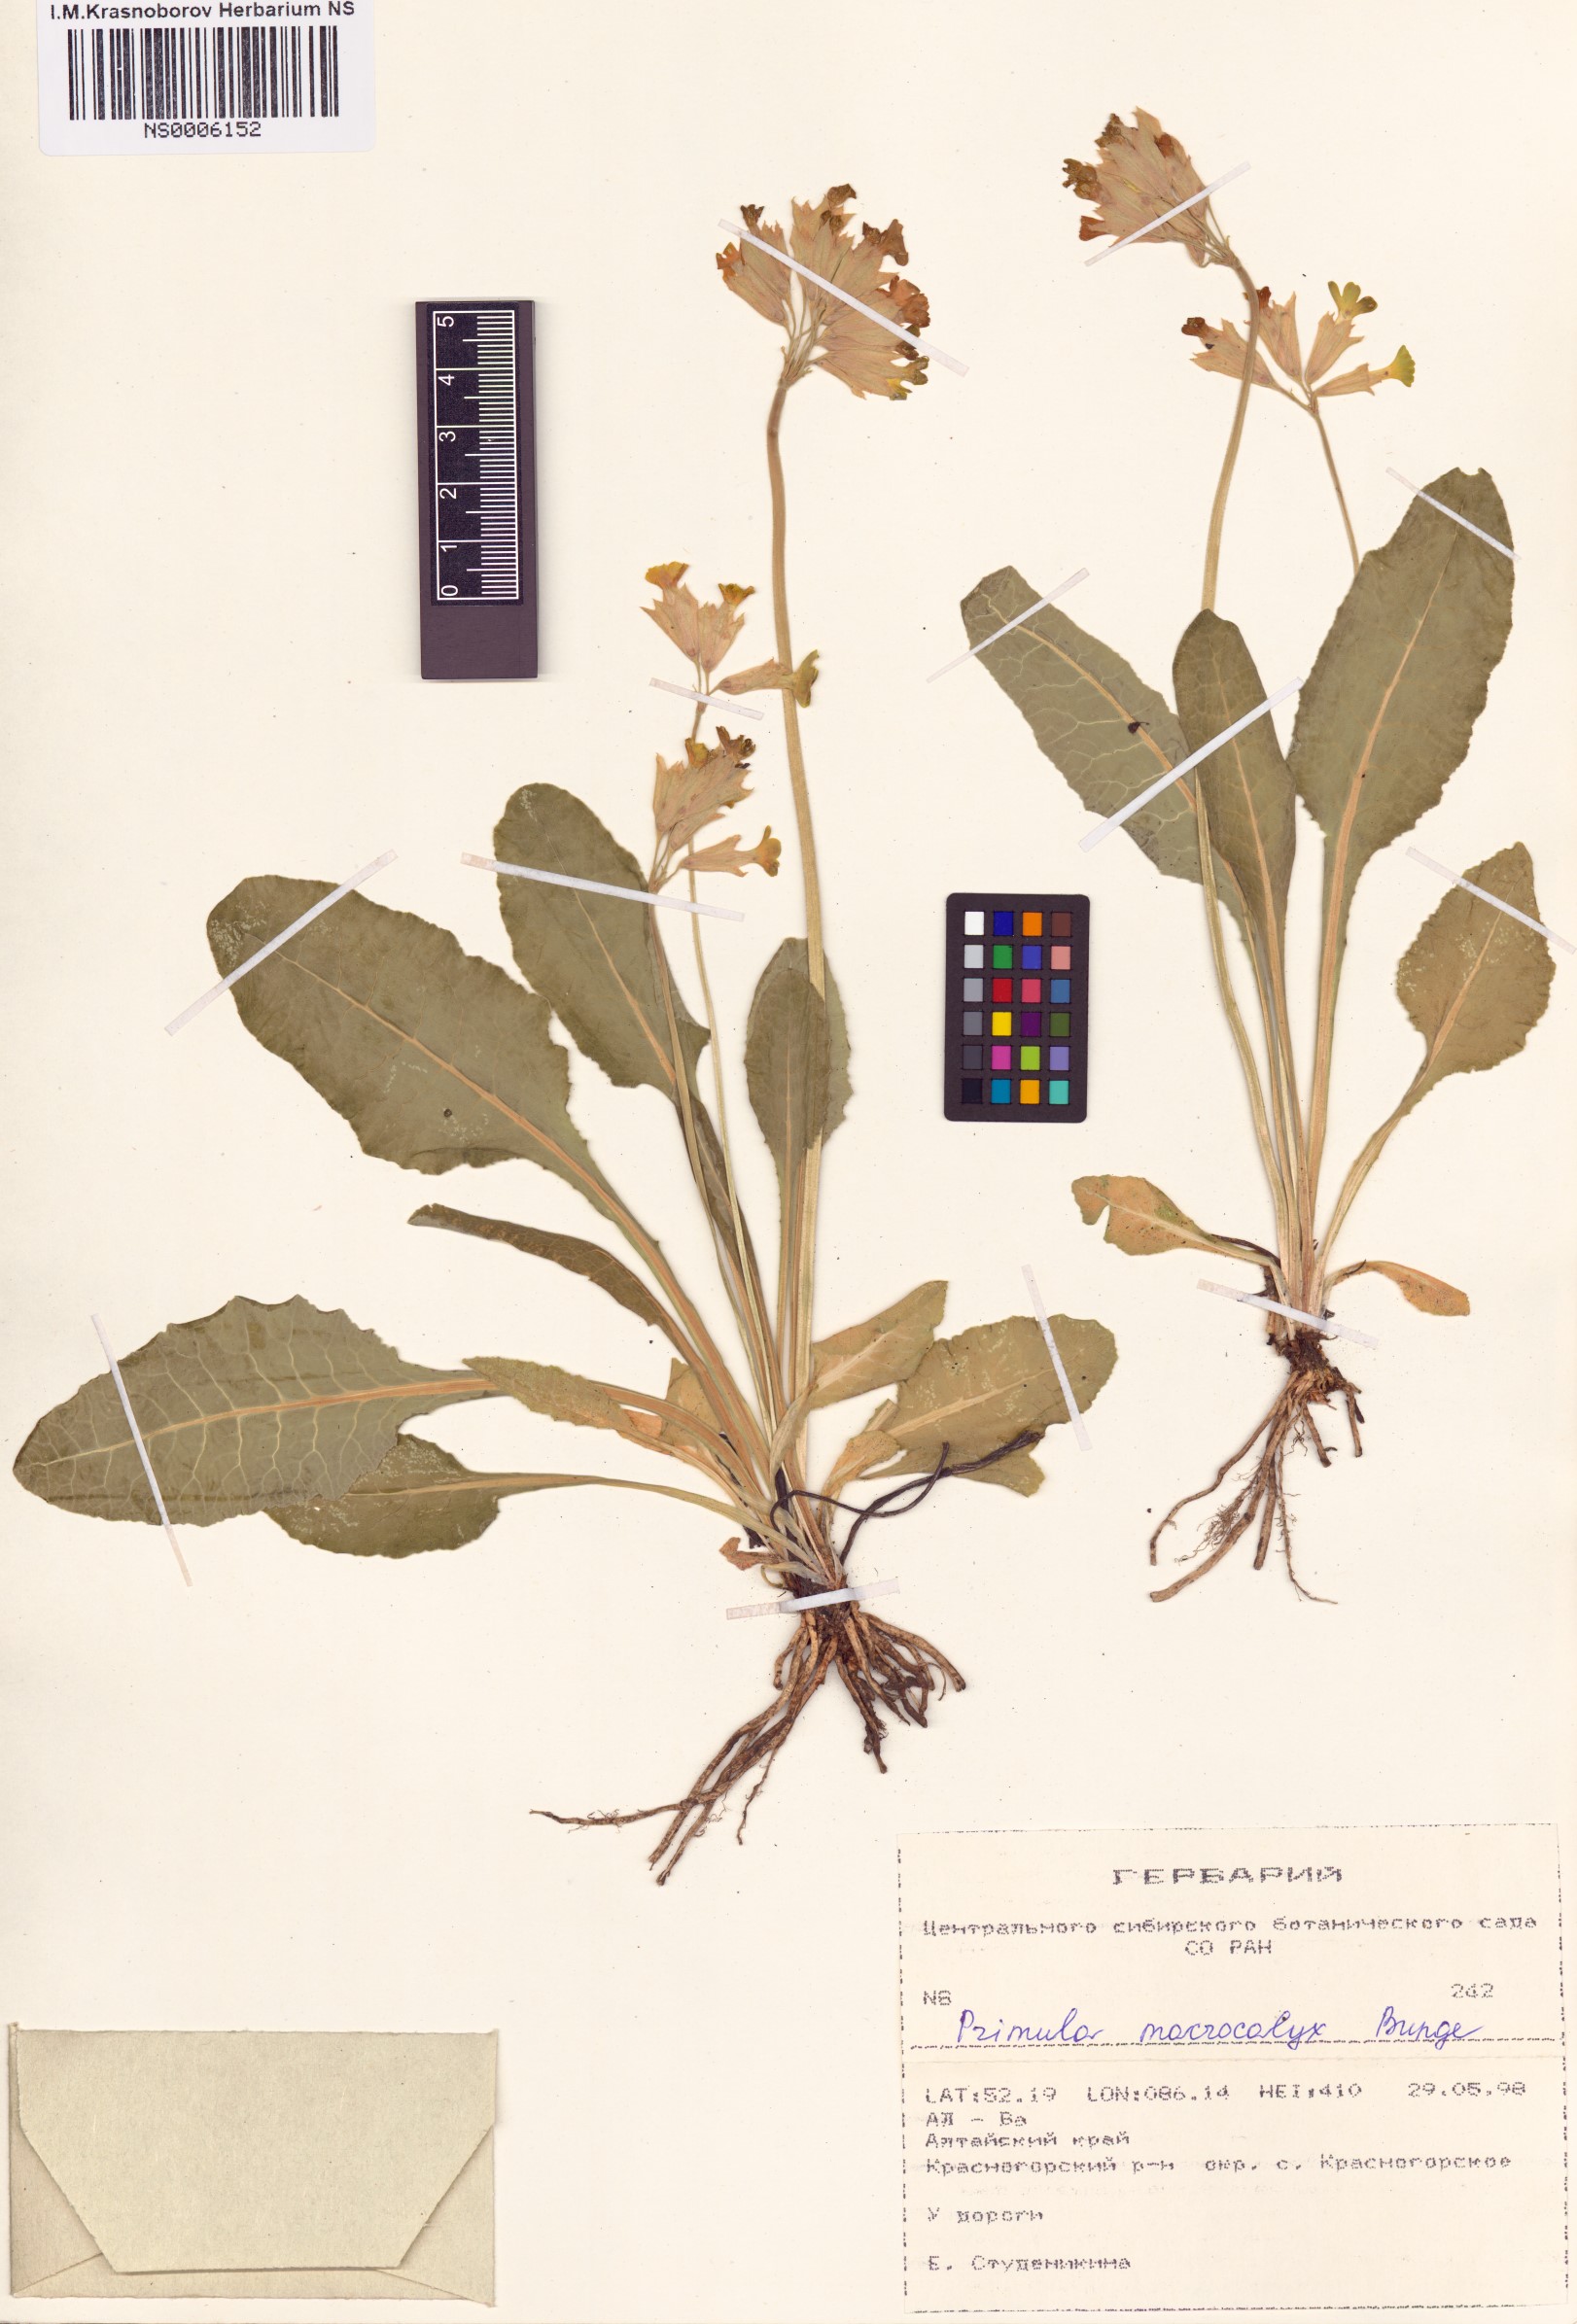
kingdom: Plantae
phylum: Tracheophyta
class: Magnoliopsida
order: Ericales
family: Primulaceae
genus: Primula
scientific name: Primula veris
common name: Cowslip
